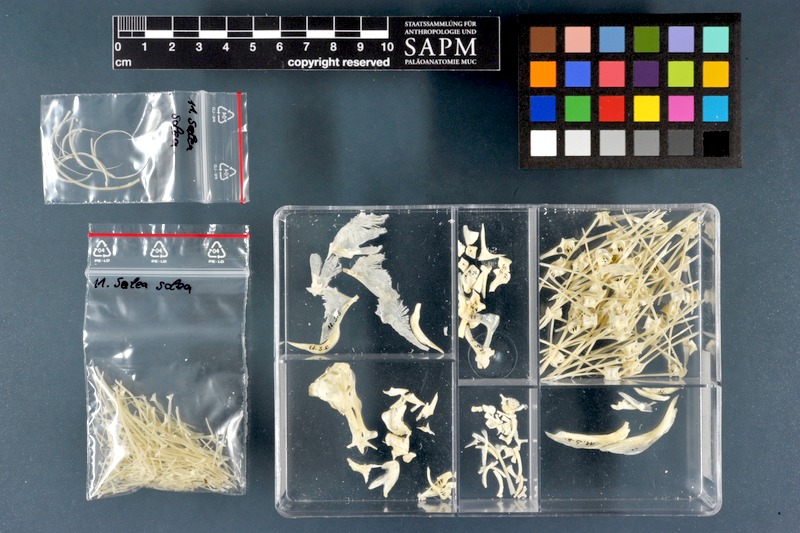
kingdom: Animalia
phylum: Chordata
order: Pleuronectiformes
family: Soleidae
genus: Solea
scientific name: Solea solea
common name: Sole
